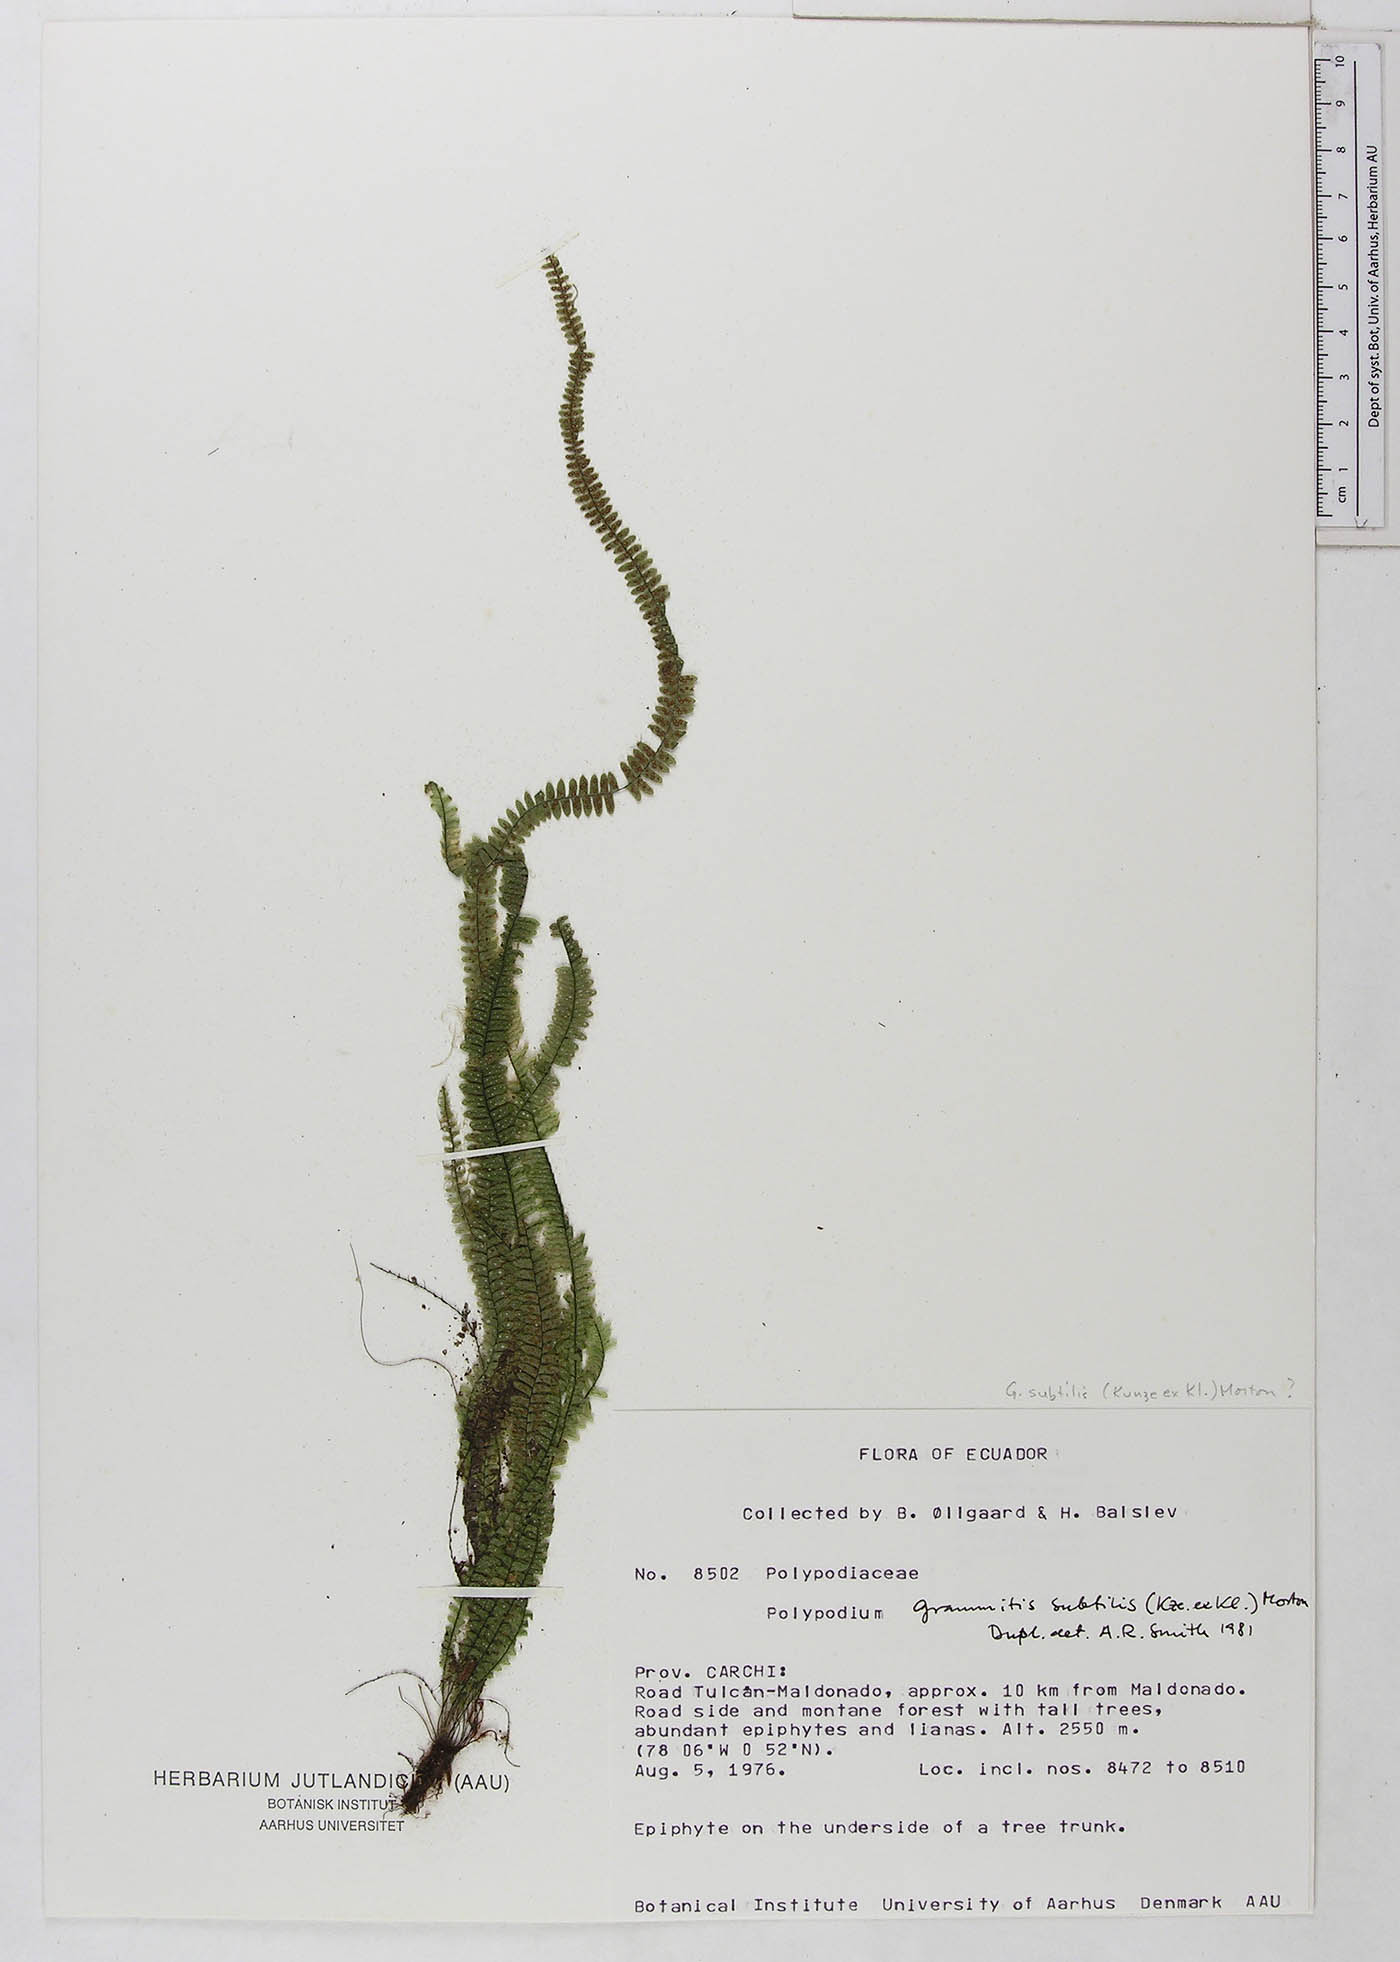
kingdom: Plantae
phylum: Tracheophyta
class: Polypodiopsida
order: Polypodiales
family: Polypodiaceae
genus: Mycopteris
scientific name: Mycopteris subtilis
